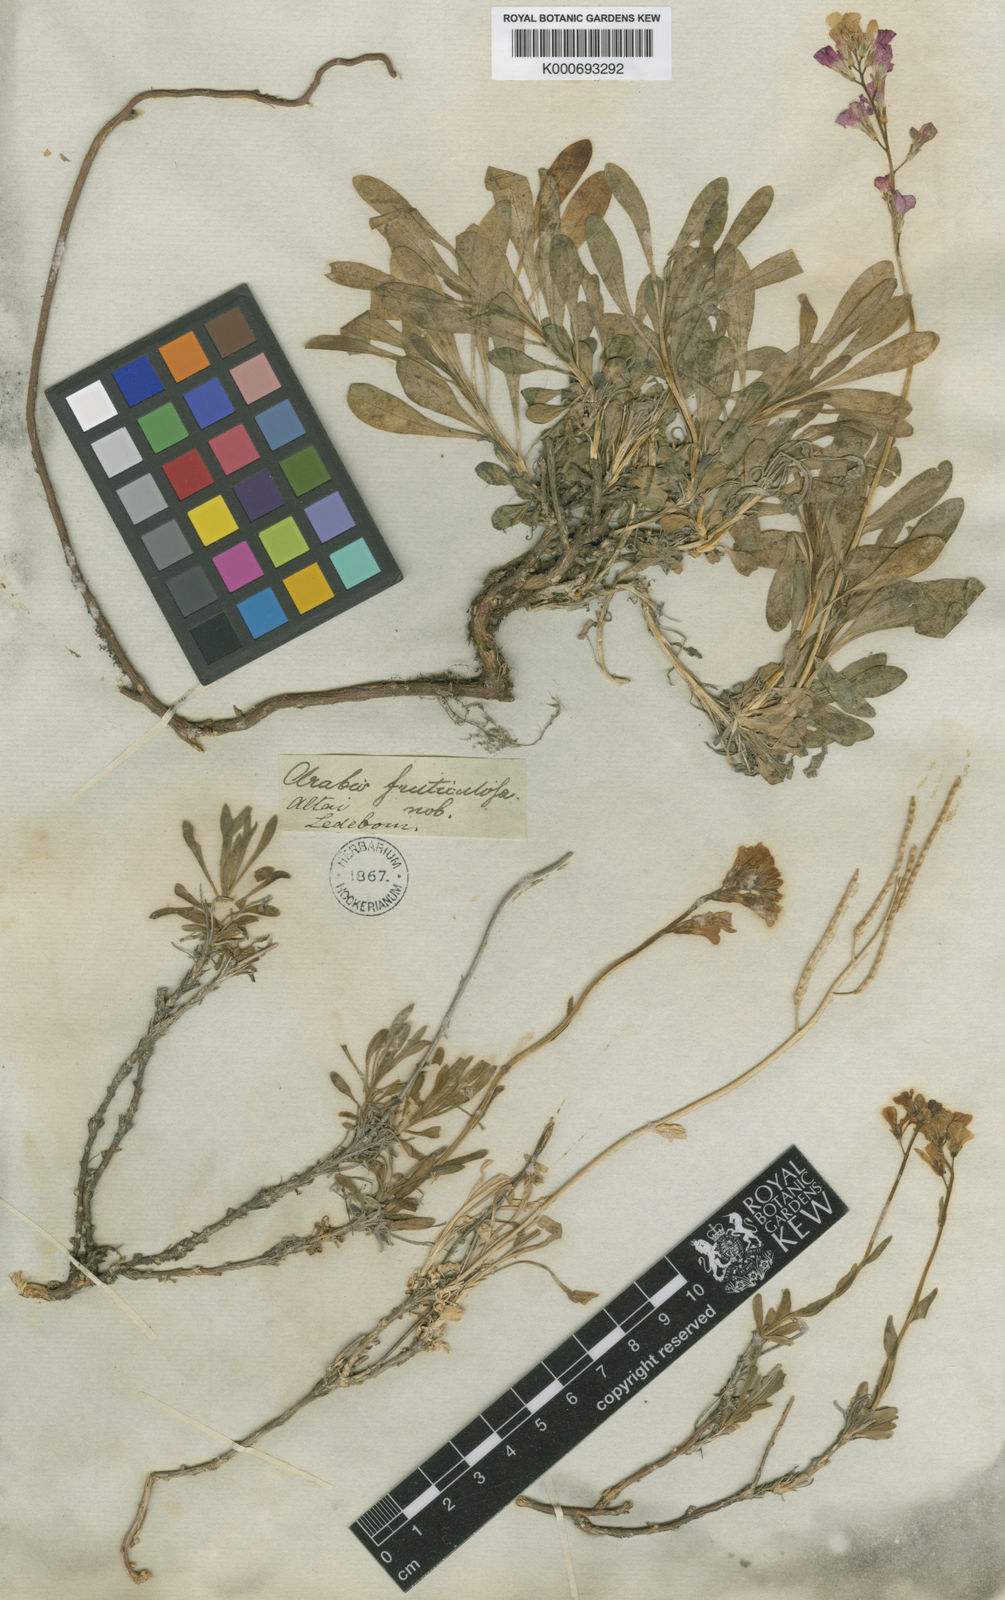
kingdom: Plantae
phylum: Tracheophyta
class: Magnoliopsida
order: Brassicales
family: Brassicaceae
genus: Boechera
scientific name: Boechera fruticosa
